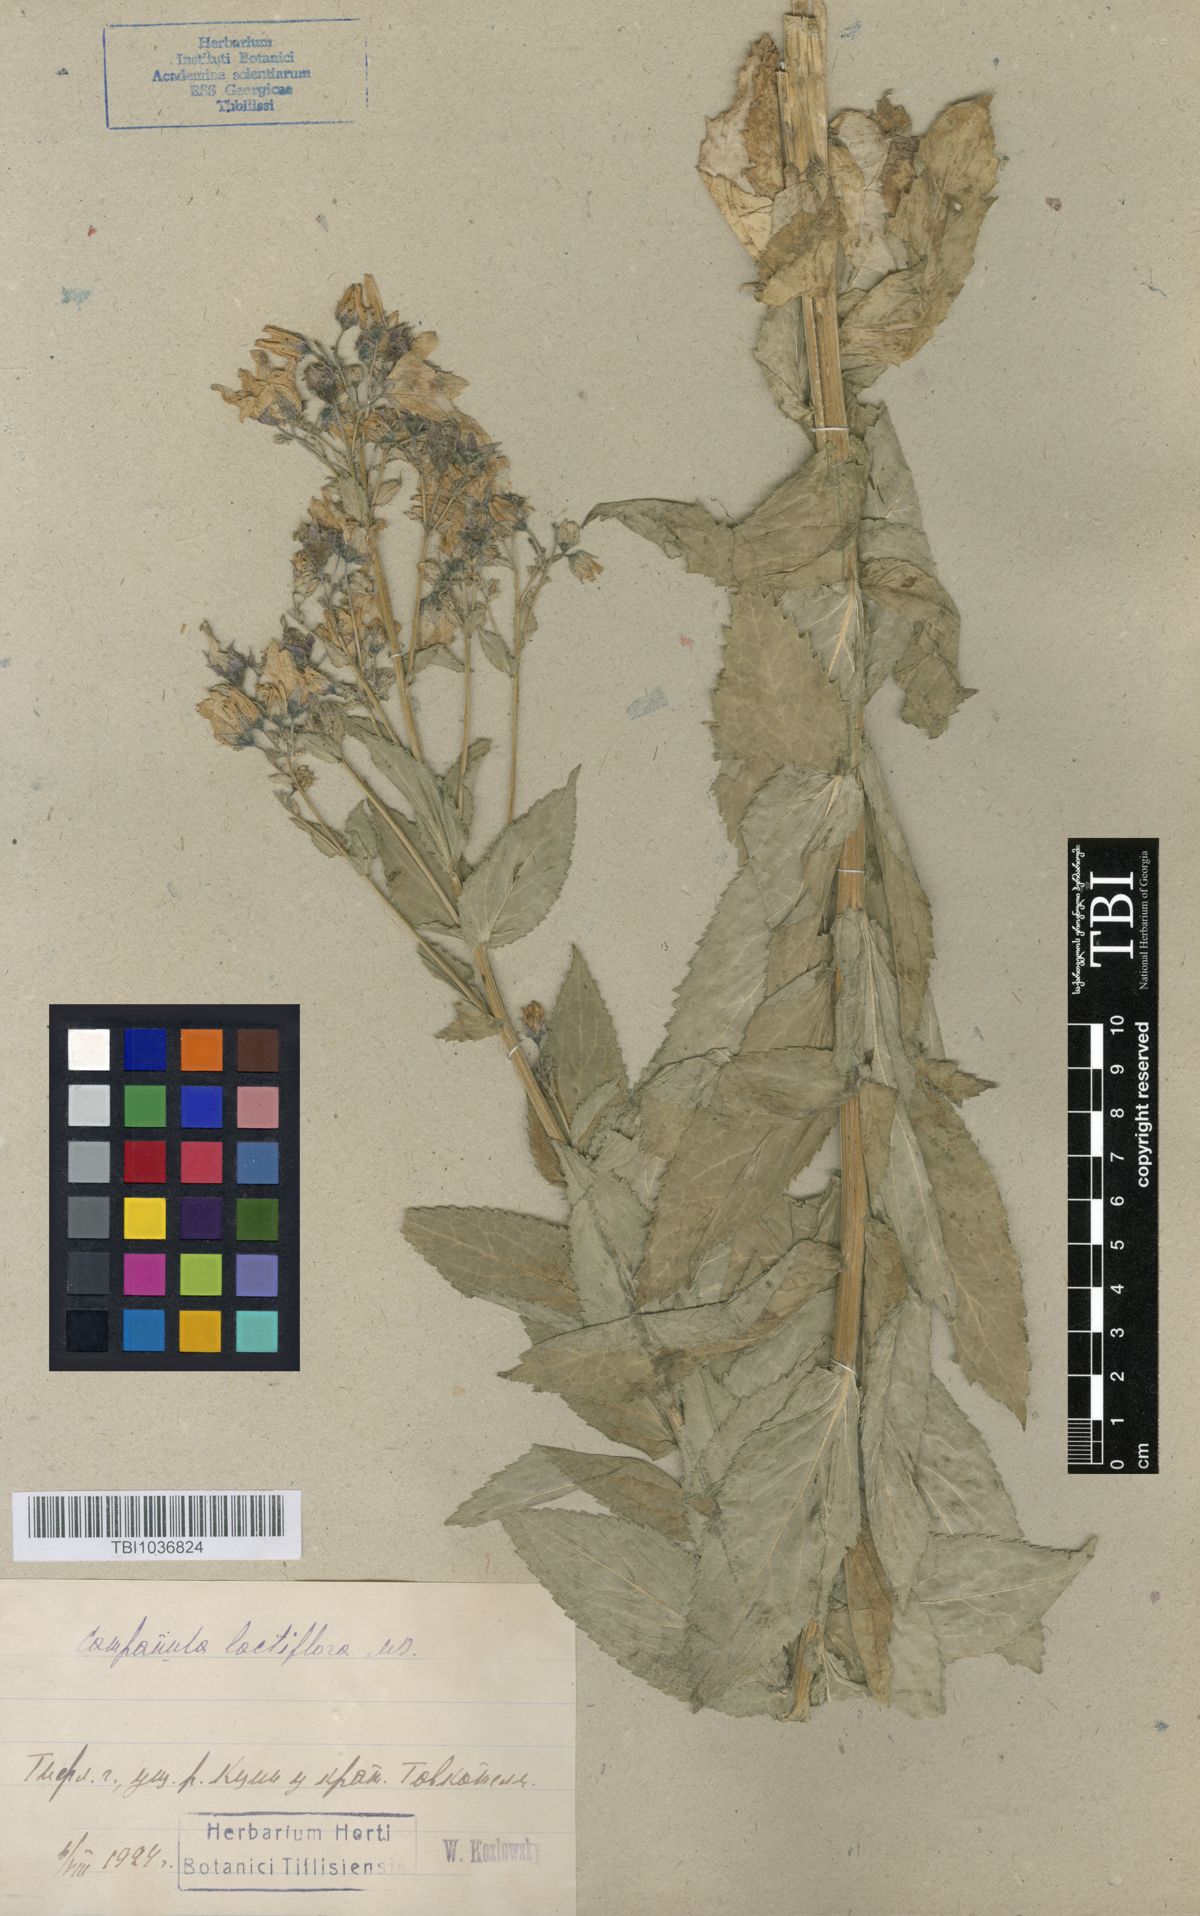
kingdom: Plantae
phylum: Tracheophyta
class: Magnoliopsida
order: Asterales
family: Campanulaceae
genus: Campanula
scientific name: Campanula lactiflora
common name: Milky bellflower
